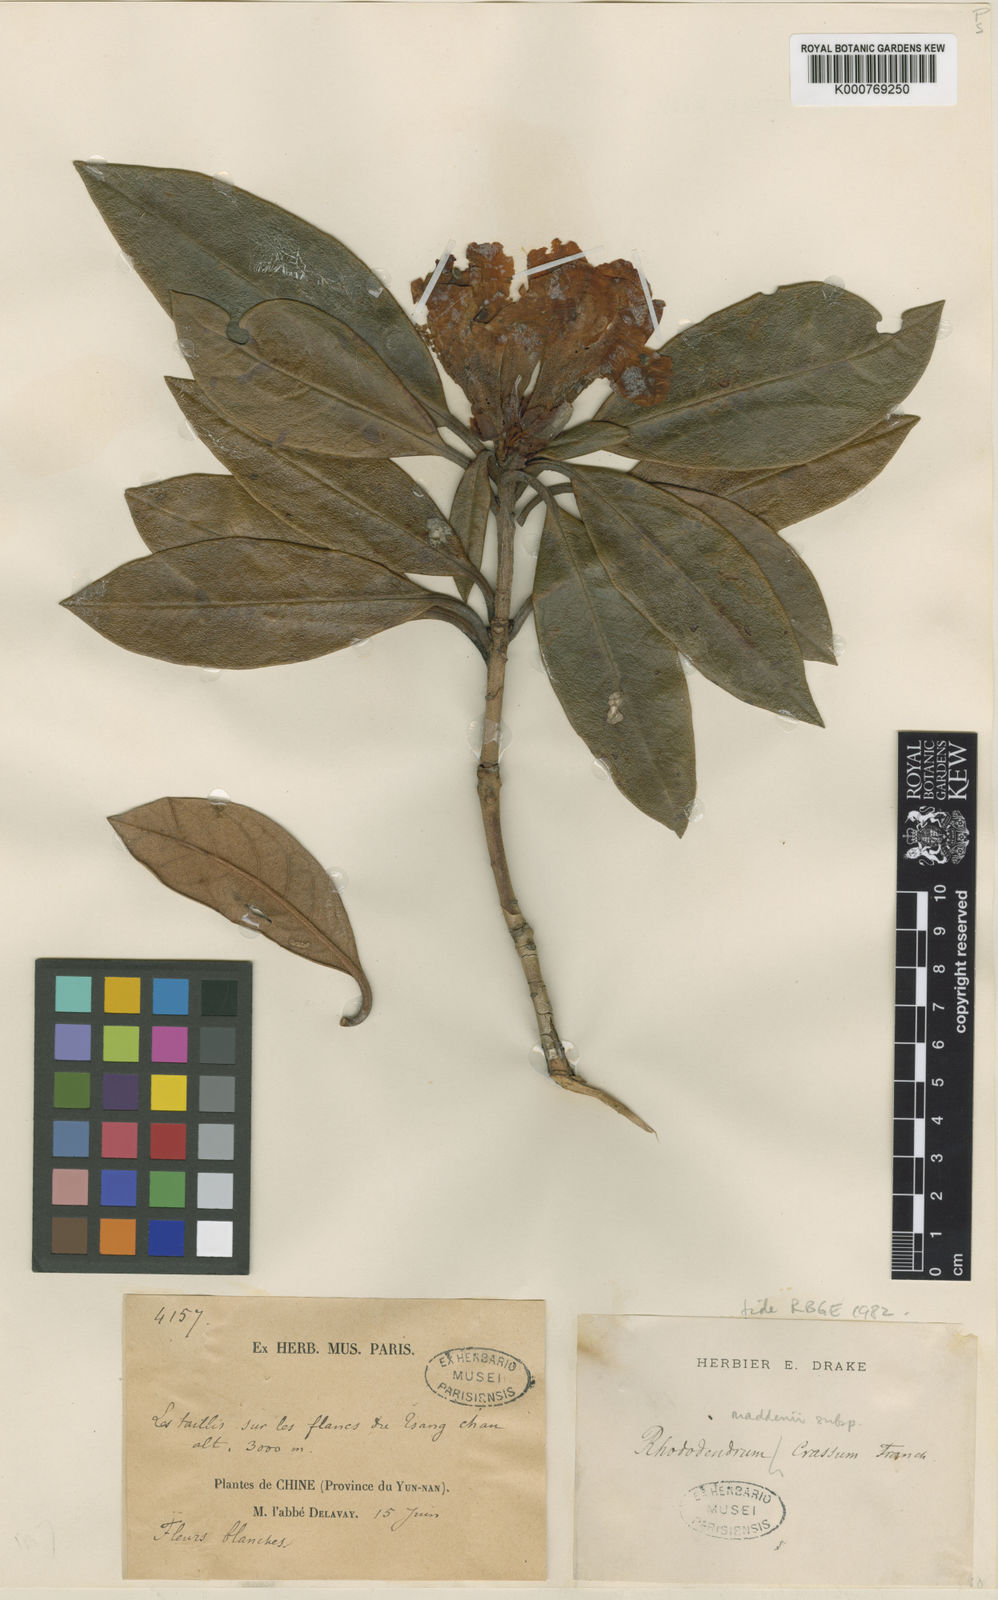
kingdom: Plantae
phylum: Tracheophyta
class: Magnoliopsida
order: Ericales
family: Ericaceae
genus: Rhododendron
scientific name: Rhododendron crassum
